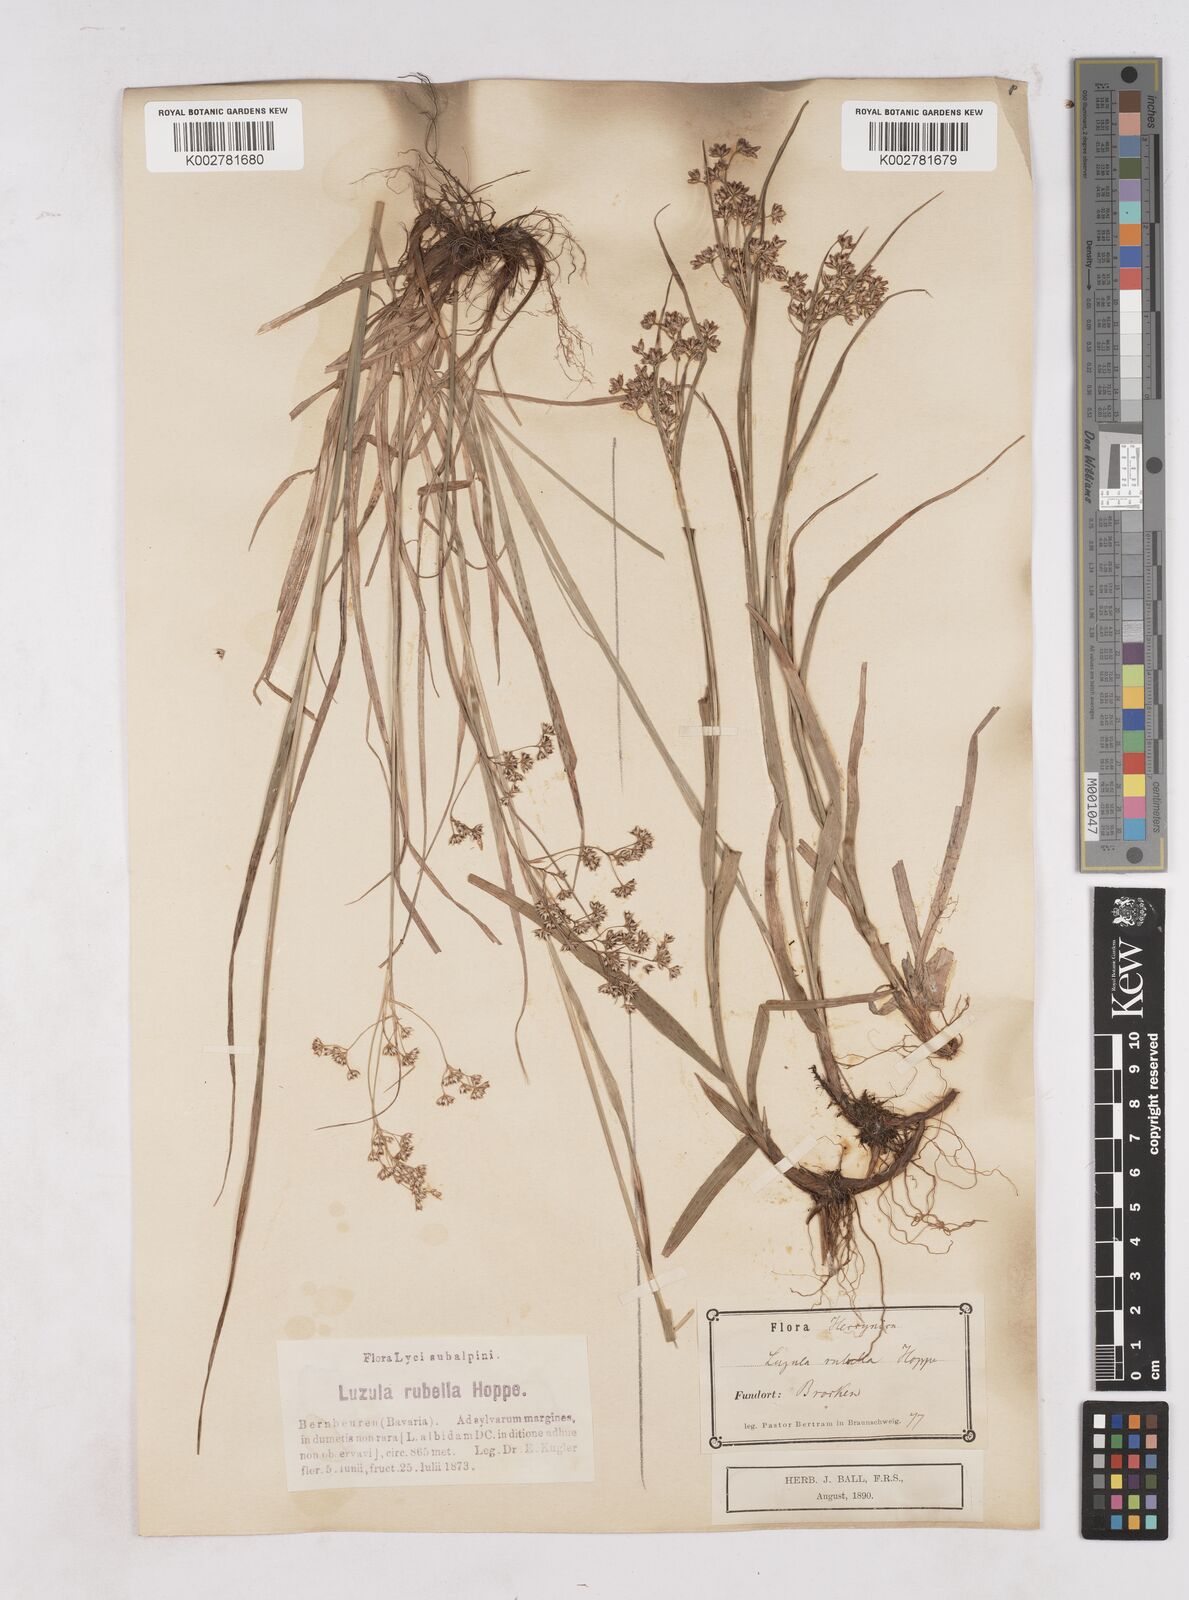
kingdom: Plantae
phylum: Tracheophyta
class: Liliopsida
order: Poales
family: Juncaceae
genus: Luzula
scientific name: Luzula luzuloides
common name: White wood-rush
